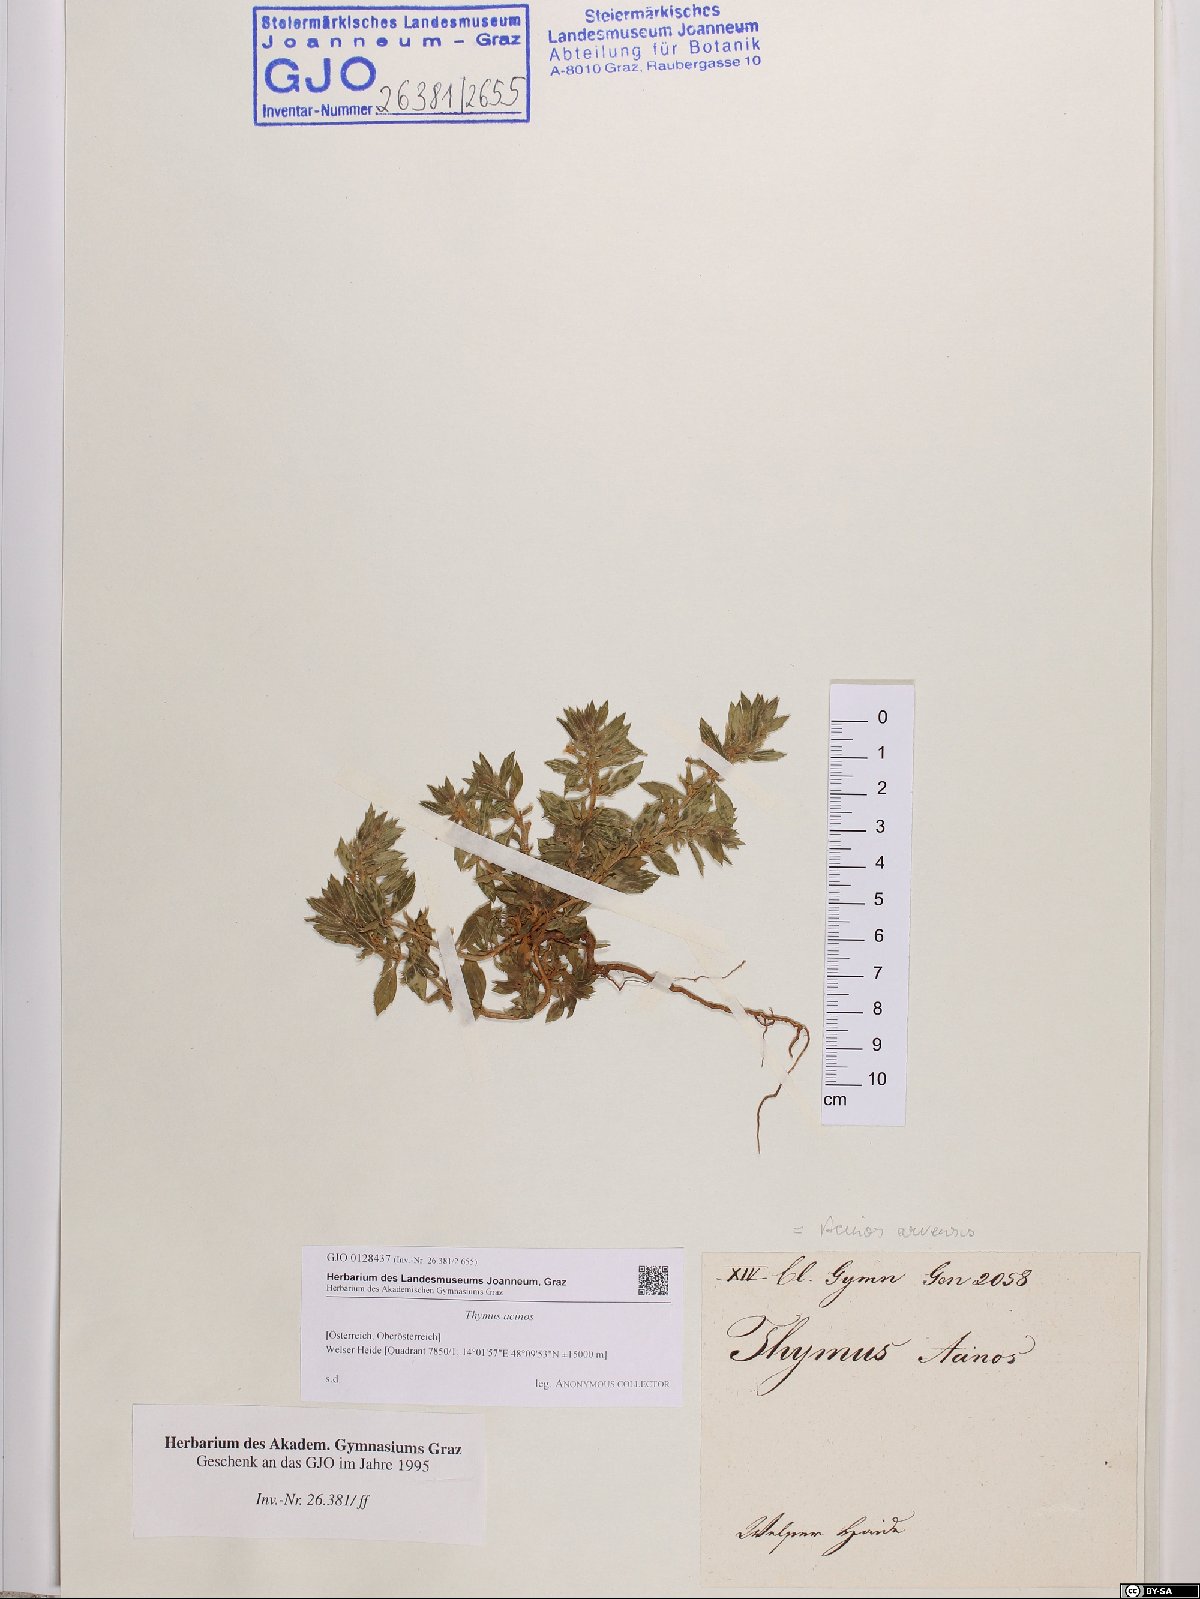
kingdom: Plantae
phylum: Tracheophyta
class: Magnoliopsida
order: Lamiales
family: Lamiaceae
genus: Clinopodium
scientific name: Clinopodium acinos
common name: Basil thyme
